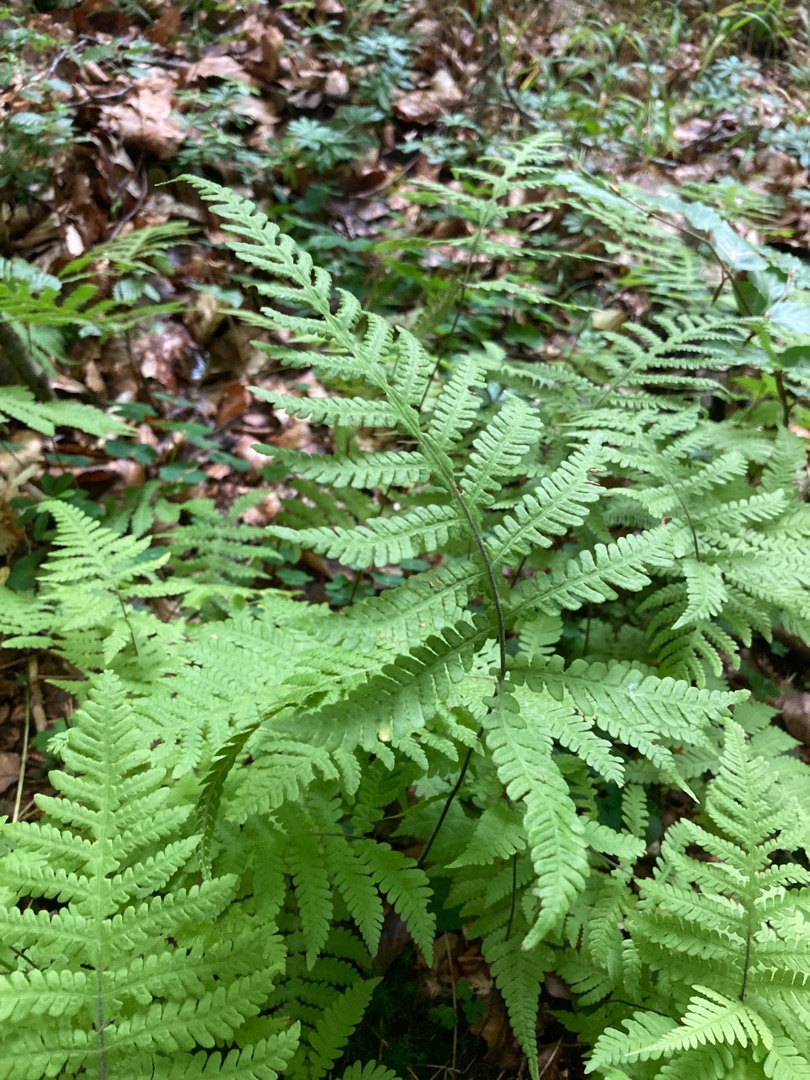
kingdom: Plantae
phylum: Tracheophyta
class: Polypodiopsida
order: Polypodiales
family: Thelypteridaceae
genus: Phegopteris
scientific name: Phegopteris connectilis
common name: Dunet egebregne
